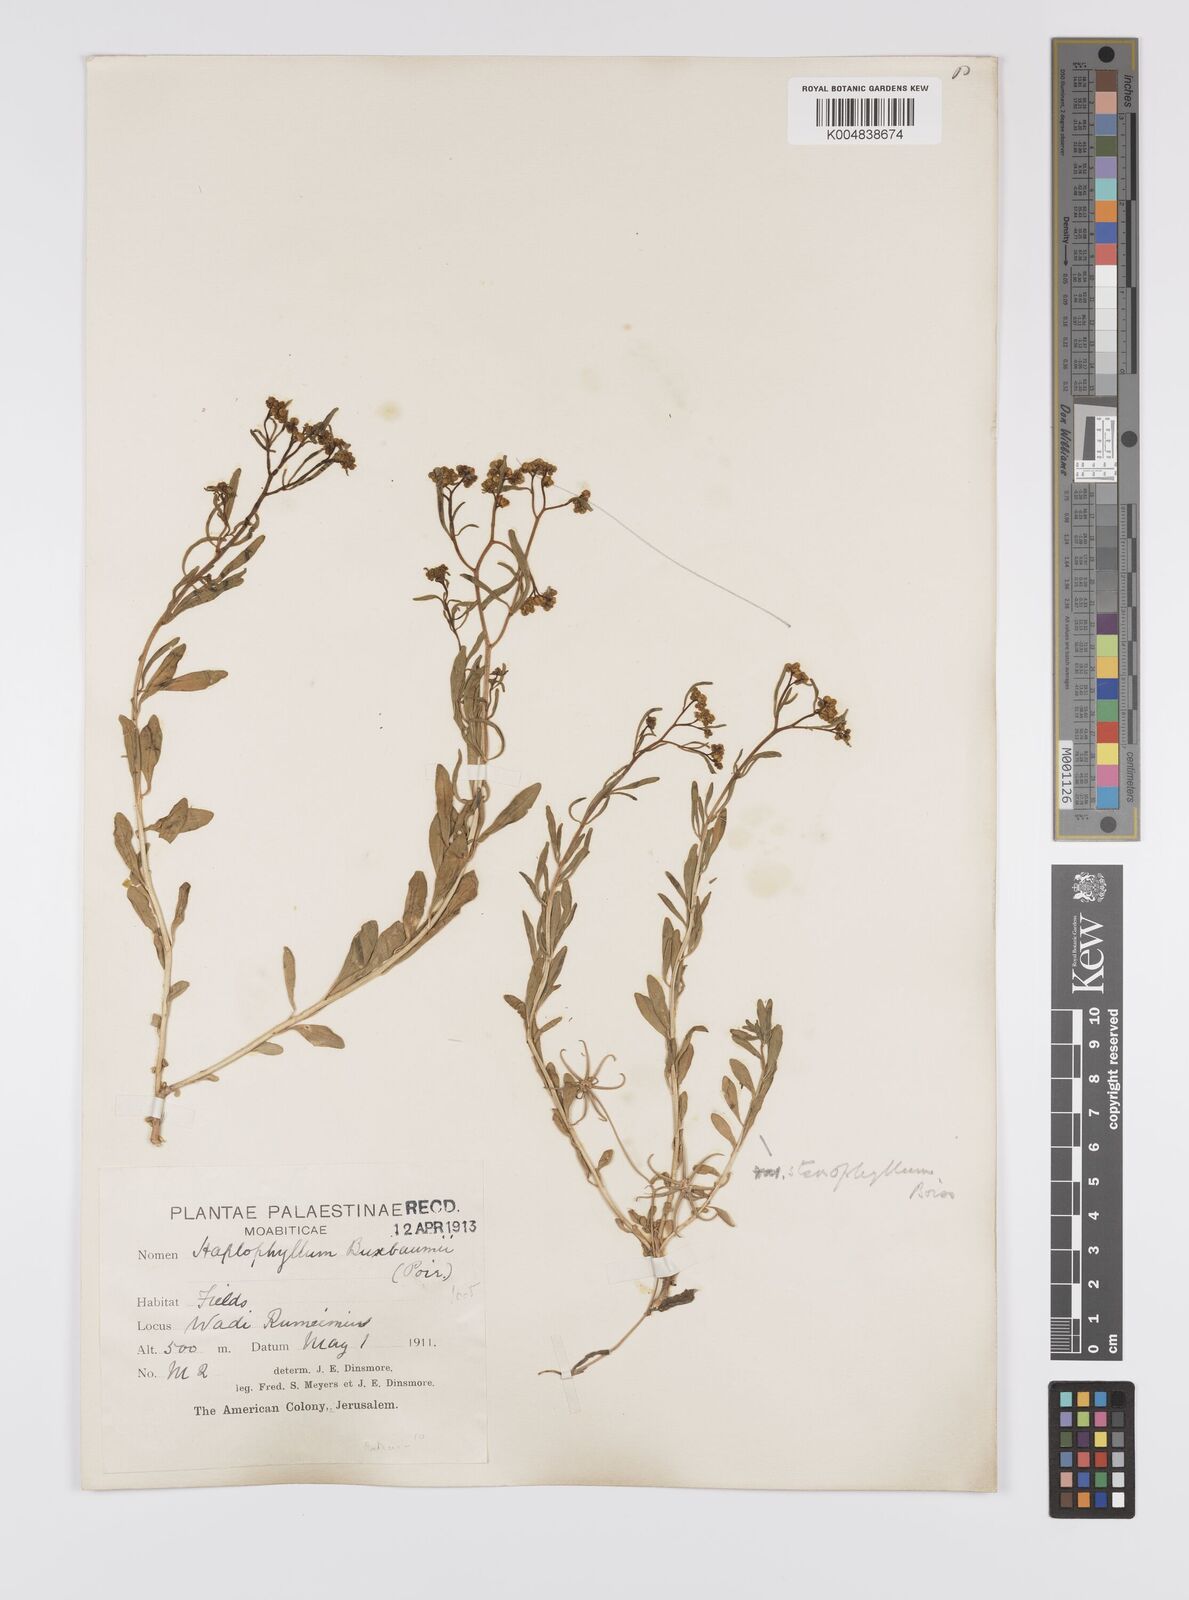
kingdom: Plantae
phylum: Tracheophyta
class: Magnoliopsida
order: Sapindales
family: Rutaceae
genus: Haplophyllum
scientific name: Haplophyllum
